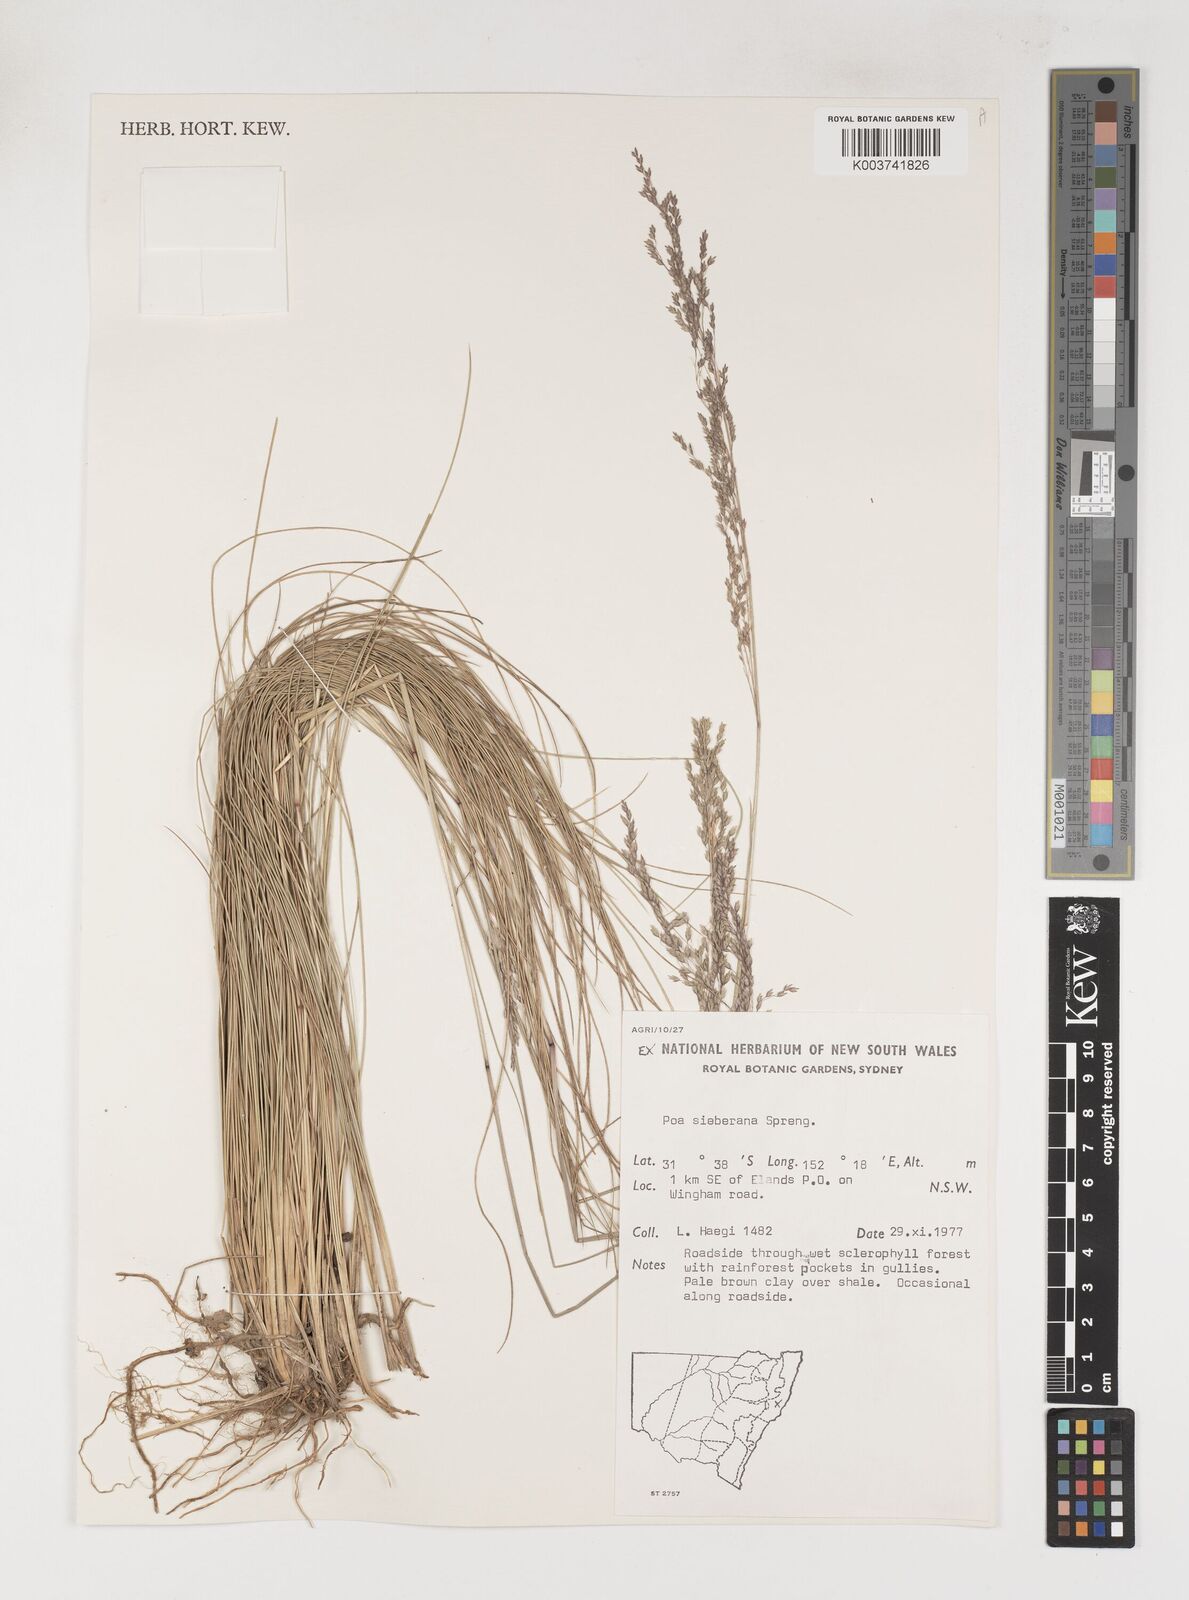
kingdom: Plantae
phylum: Tracheophyta
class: Liliopsida
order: Poales
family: Poaceae
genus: Poa
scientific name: Poa sieberiana
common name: Tussock poa
